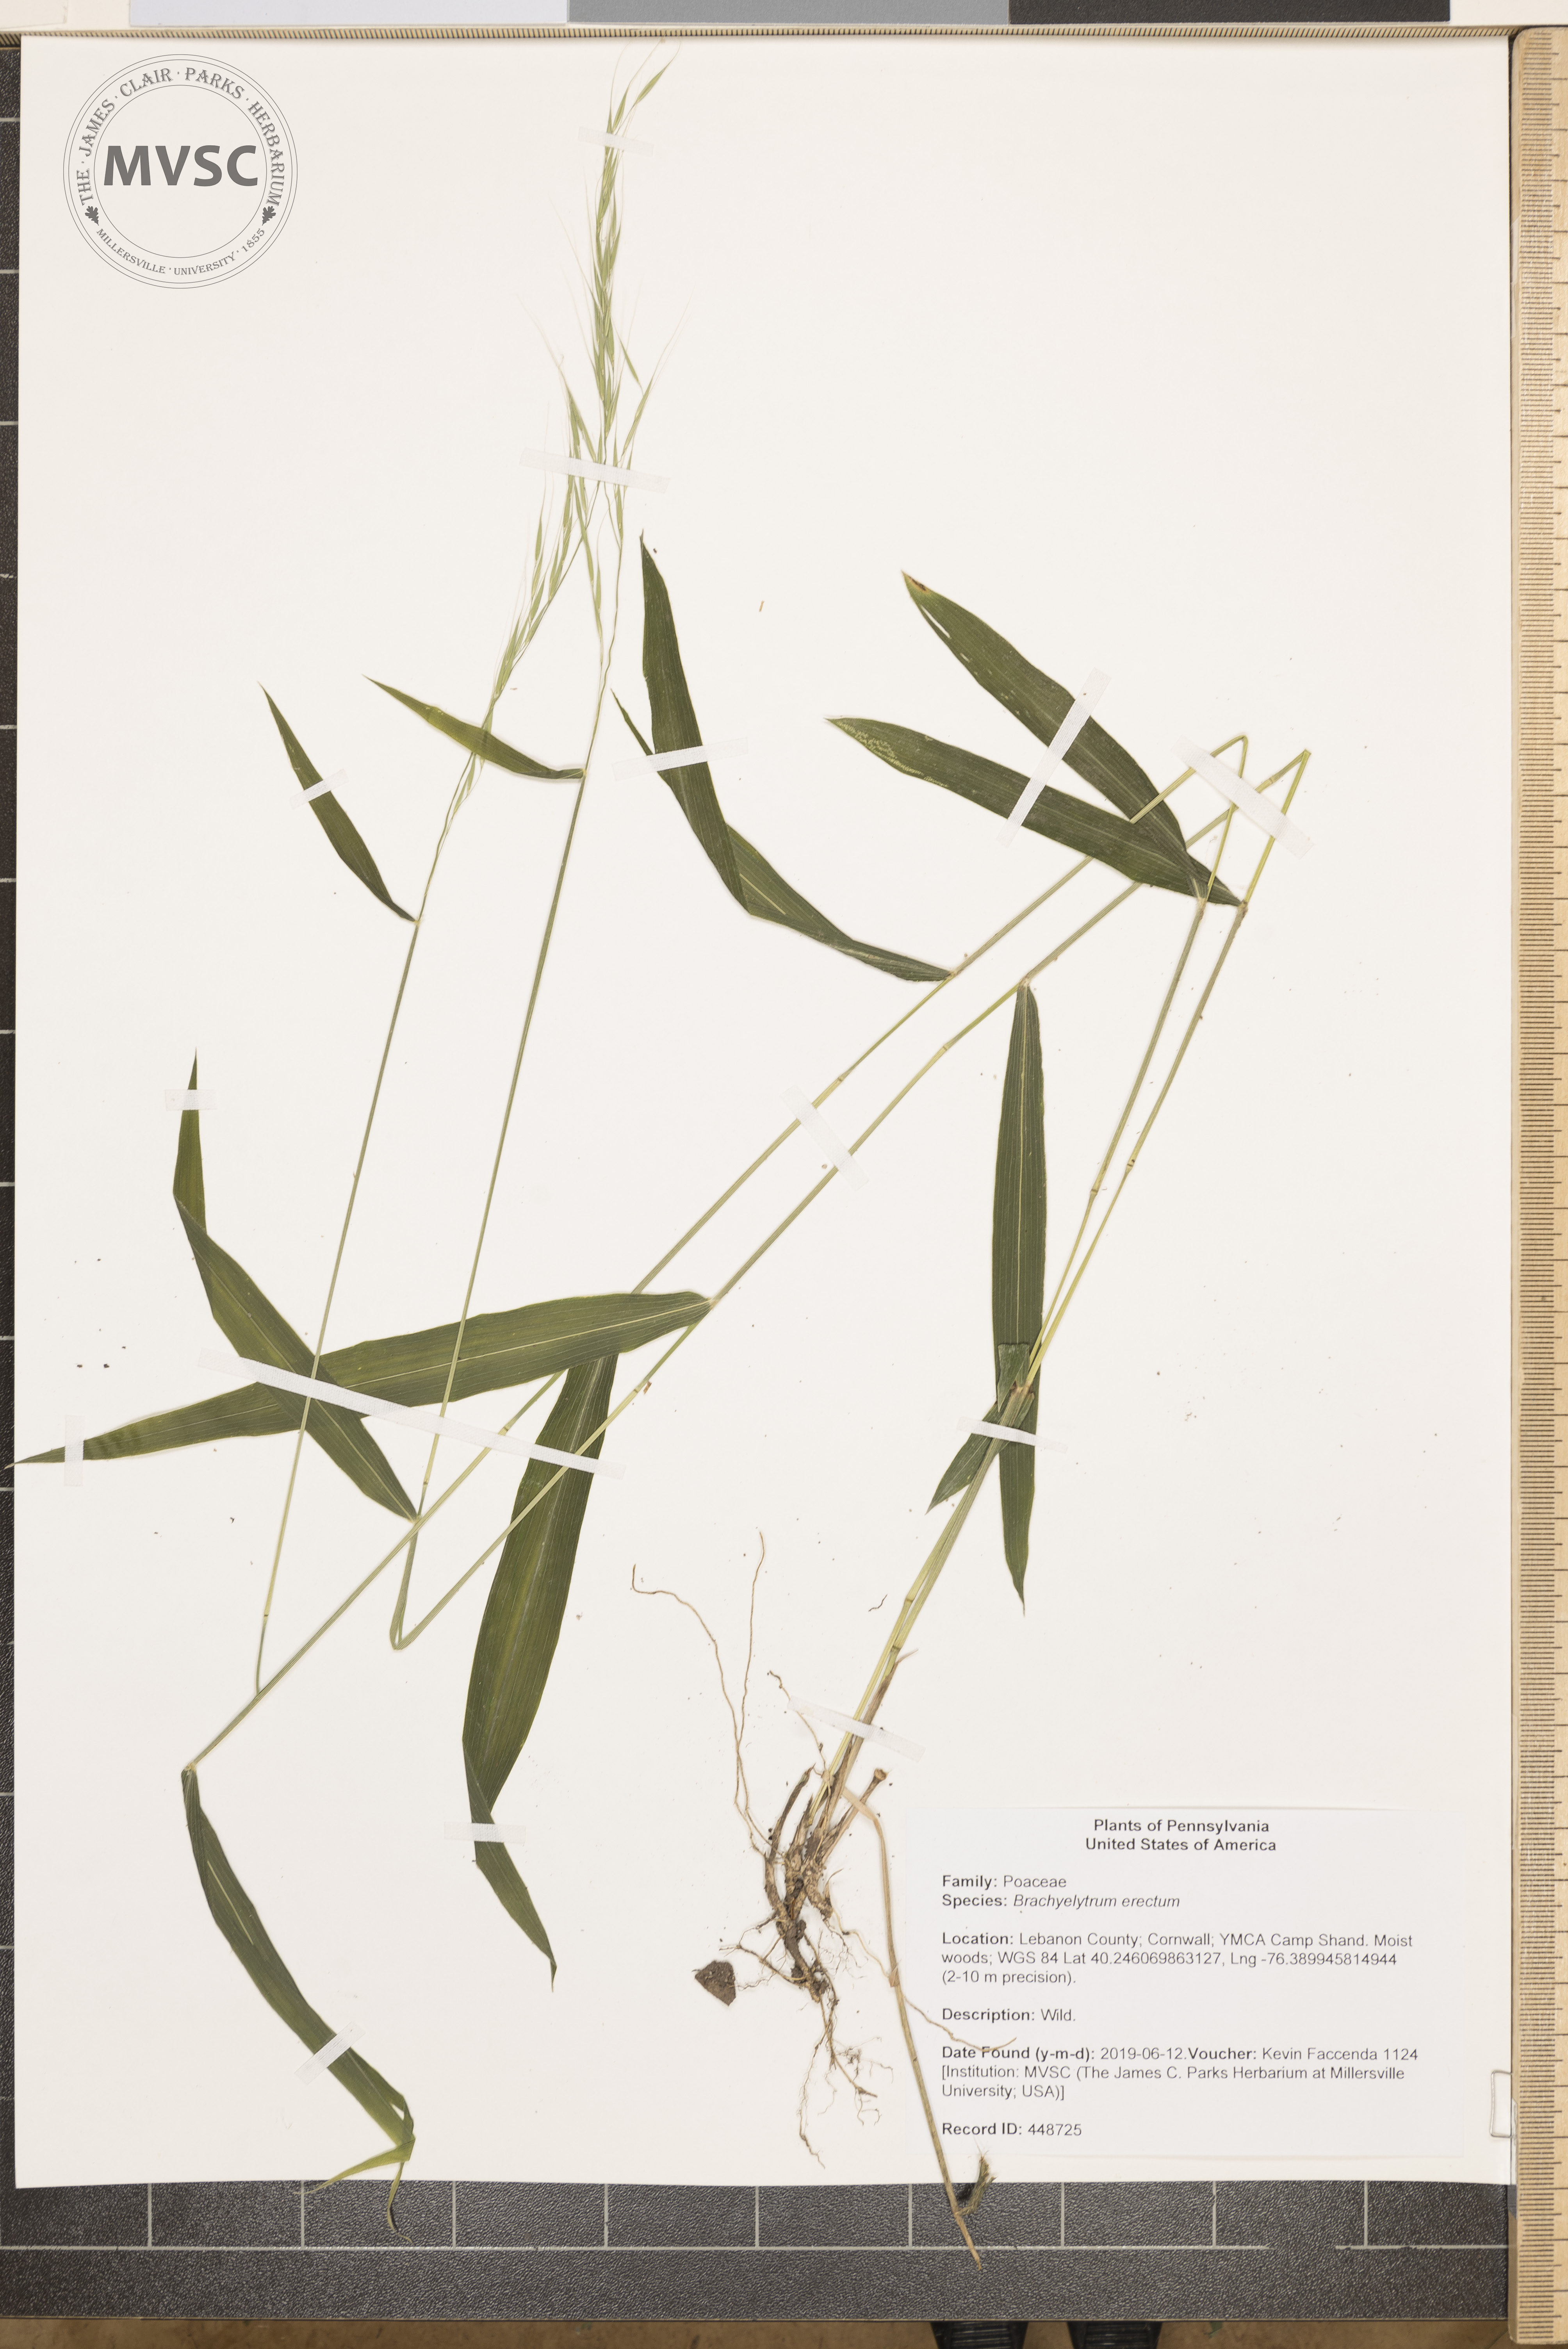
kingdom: Plantae
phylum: Tracheophyta
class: Liliopsida
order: Poales
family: Poaceae
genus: Brachyelytrum
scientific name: Brachyelytrum erectum
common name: Bearded shorthusk
